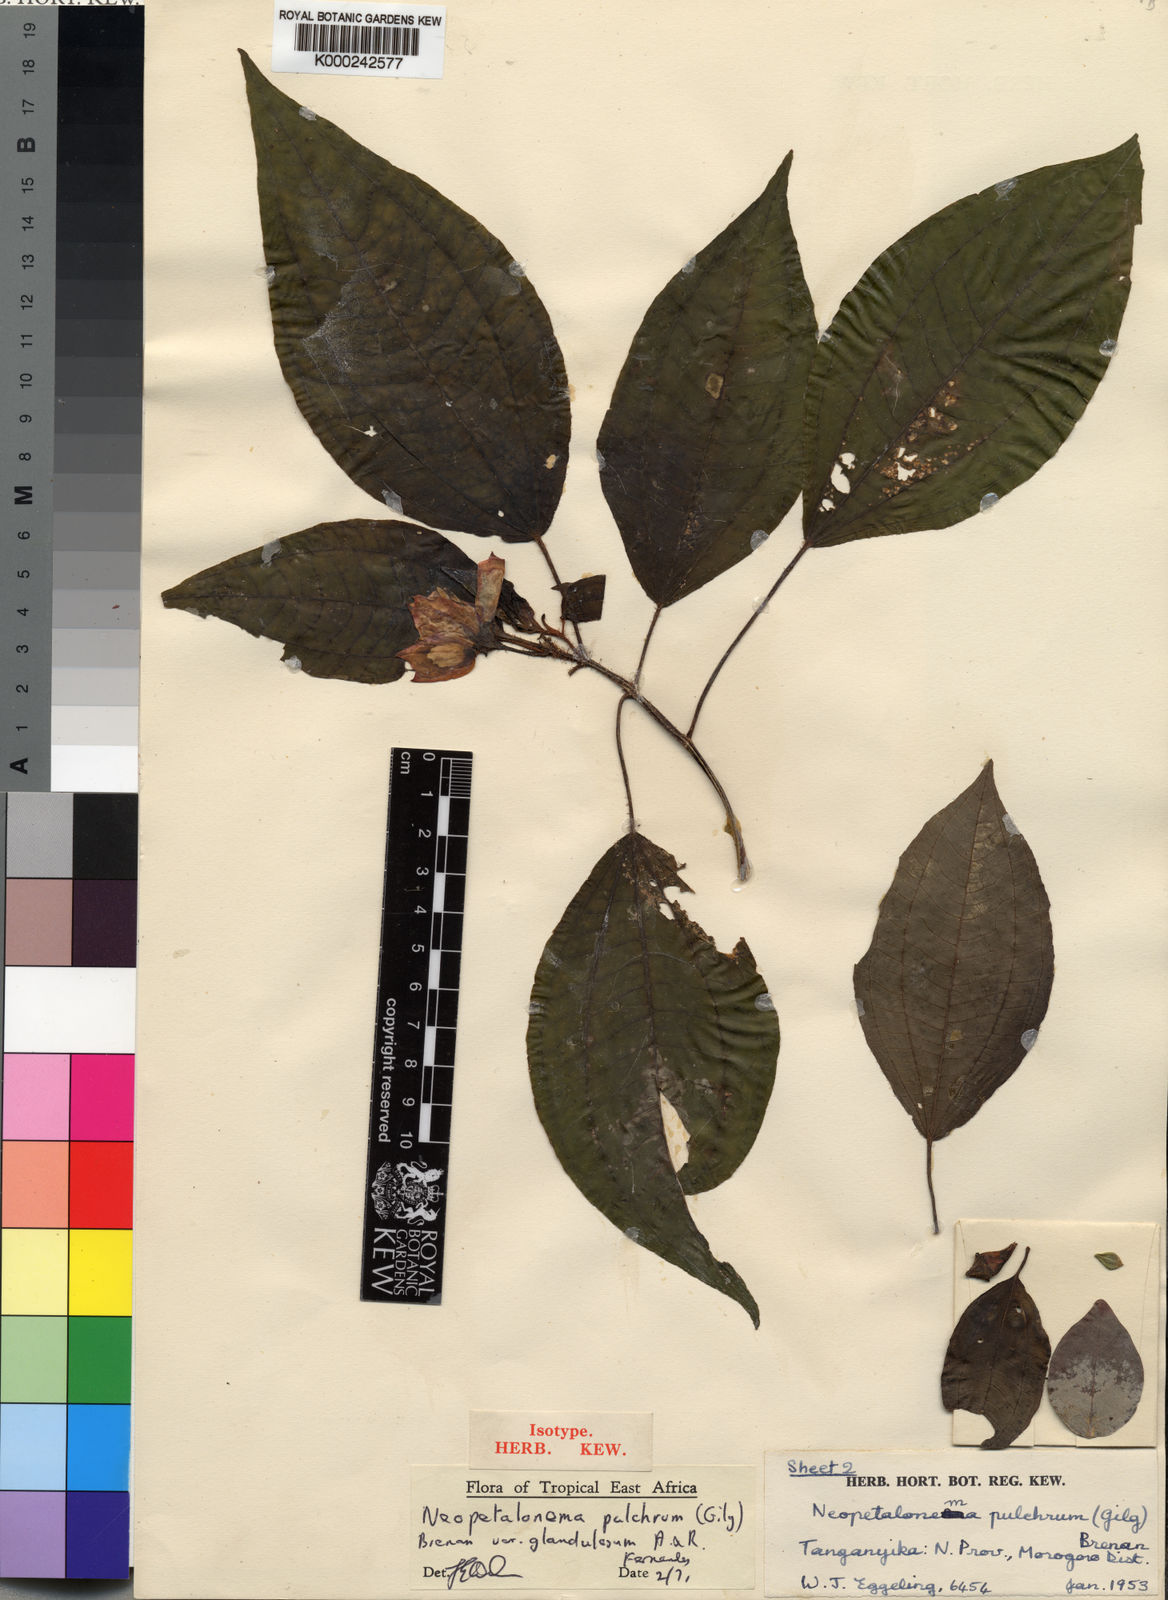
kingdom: Plantae
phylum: Tracheophyta
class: Magnoliopsida
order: Myrtales
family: Melastomataceae
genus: Gravesia
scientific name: Gravesia pulchra
